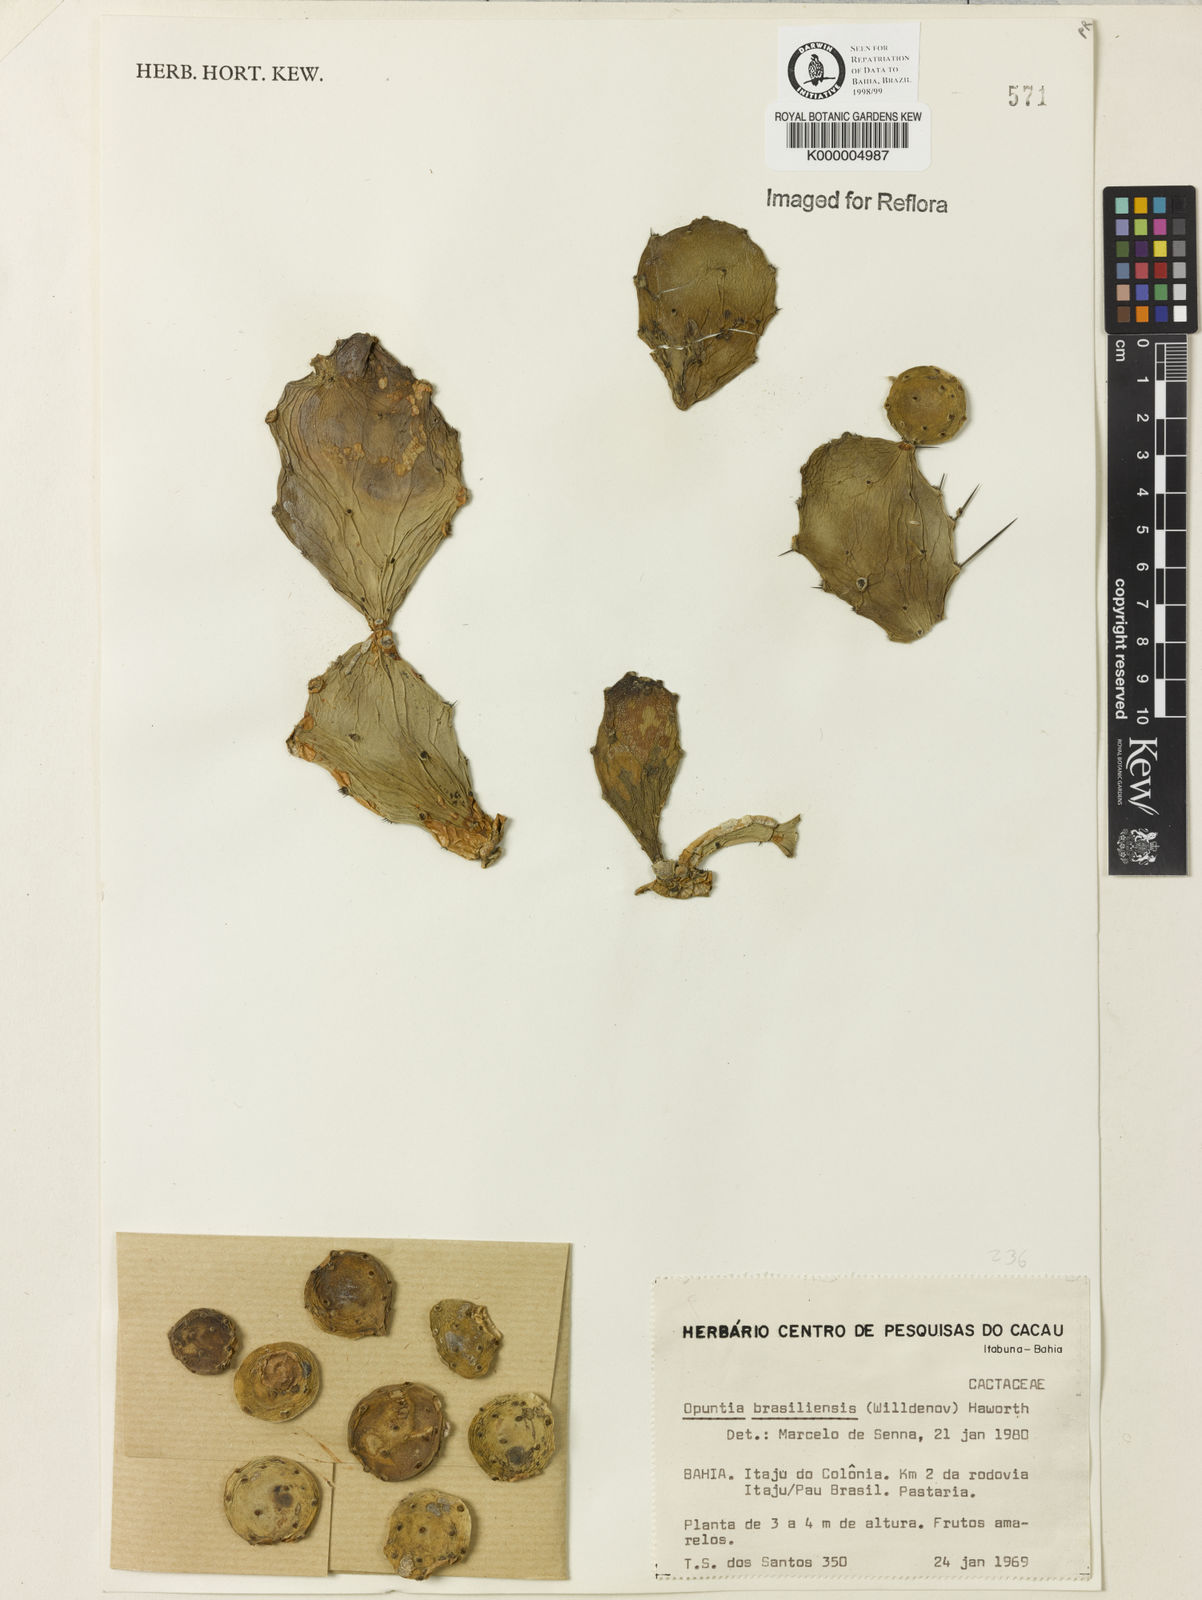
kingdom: Plantae
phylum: Tracheophyta
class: Magnoliopsida
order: Caryophyllales
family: Cactaceae
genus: Brasiliopuntia
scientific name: Brasiliopuntia brasiliensis
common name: Brazilian pricklypear
